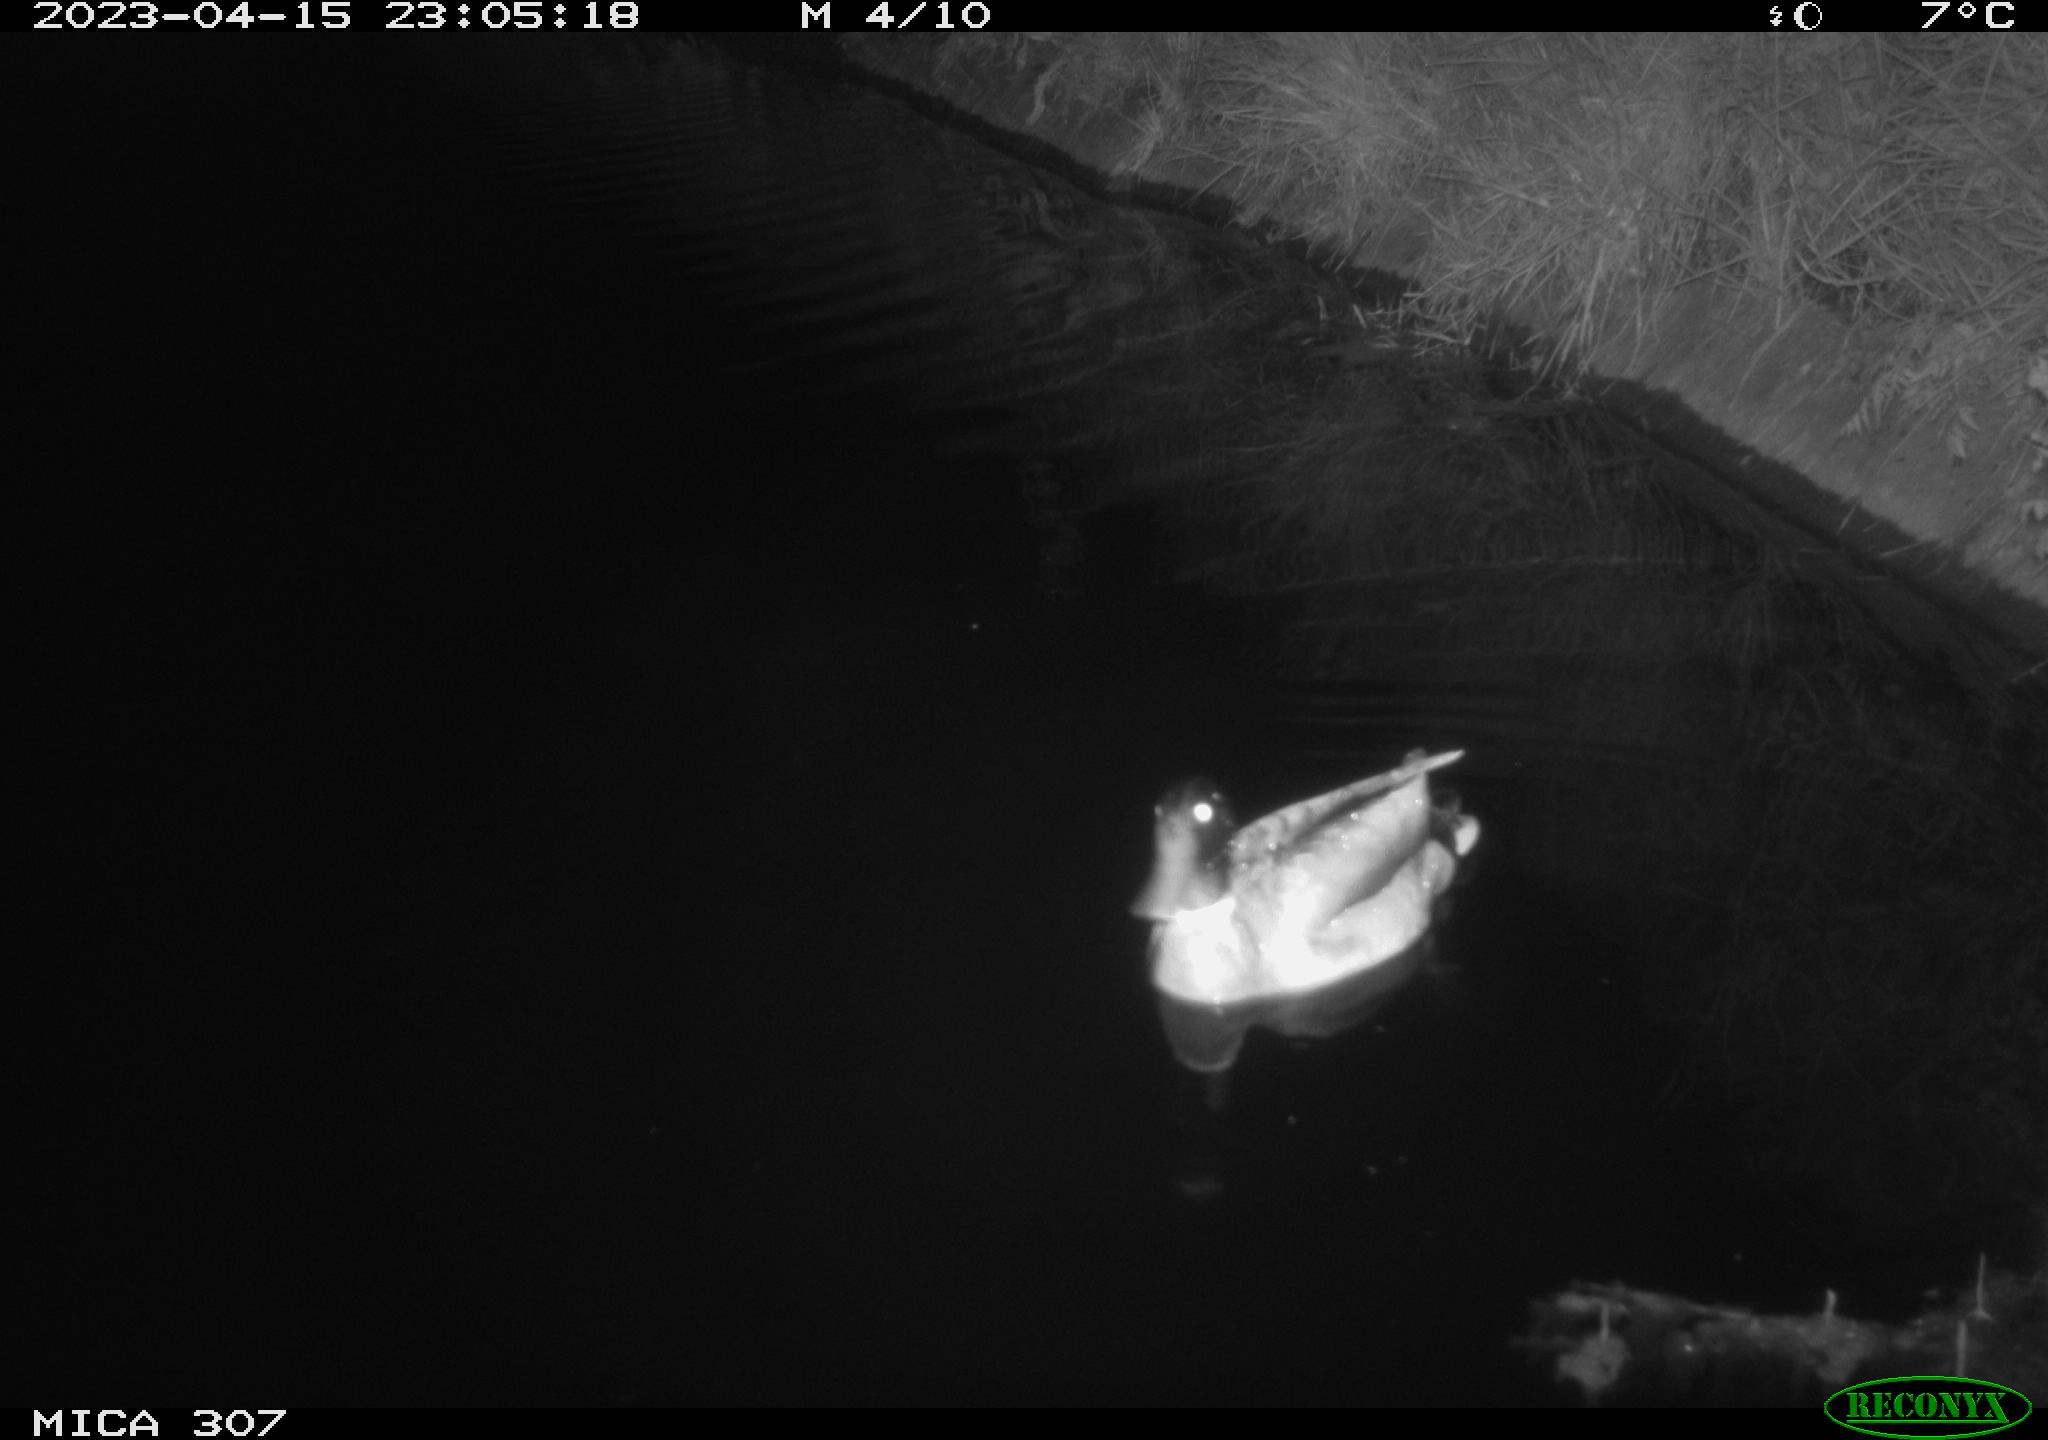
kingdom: Animalia
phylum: Chordata
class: Aves
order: Anseriformes
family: Anatidae
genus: Anas
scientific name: Anas
